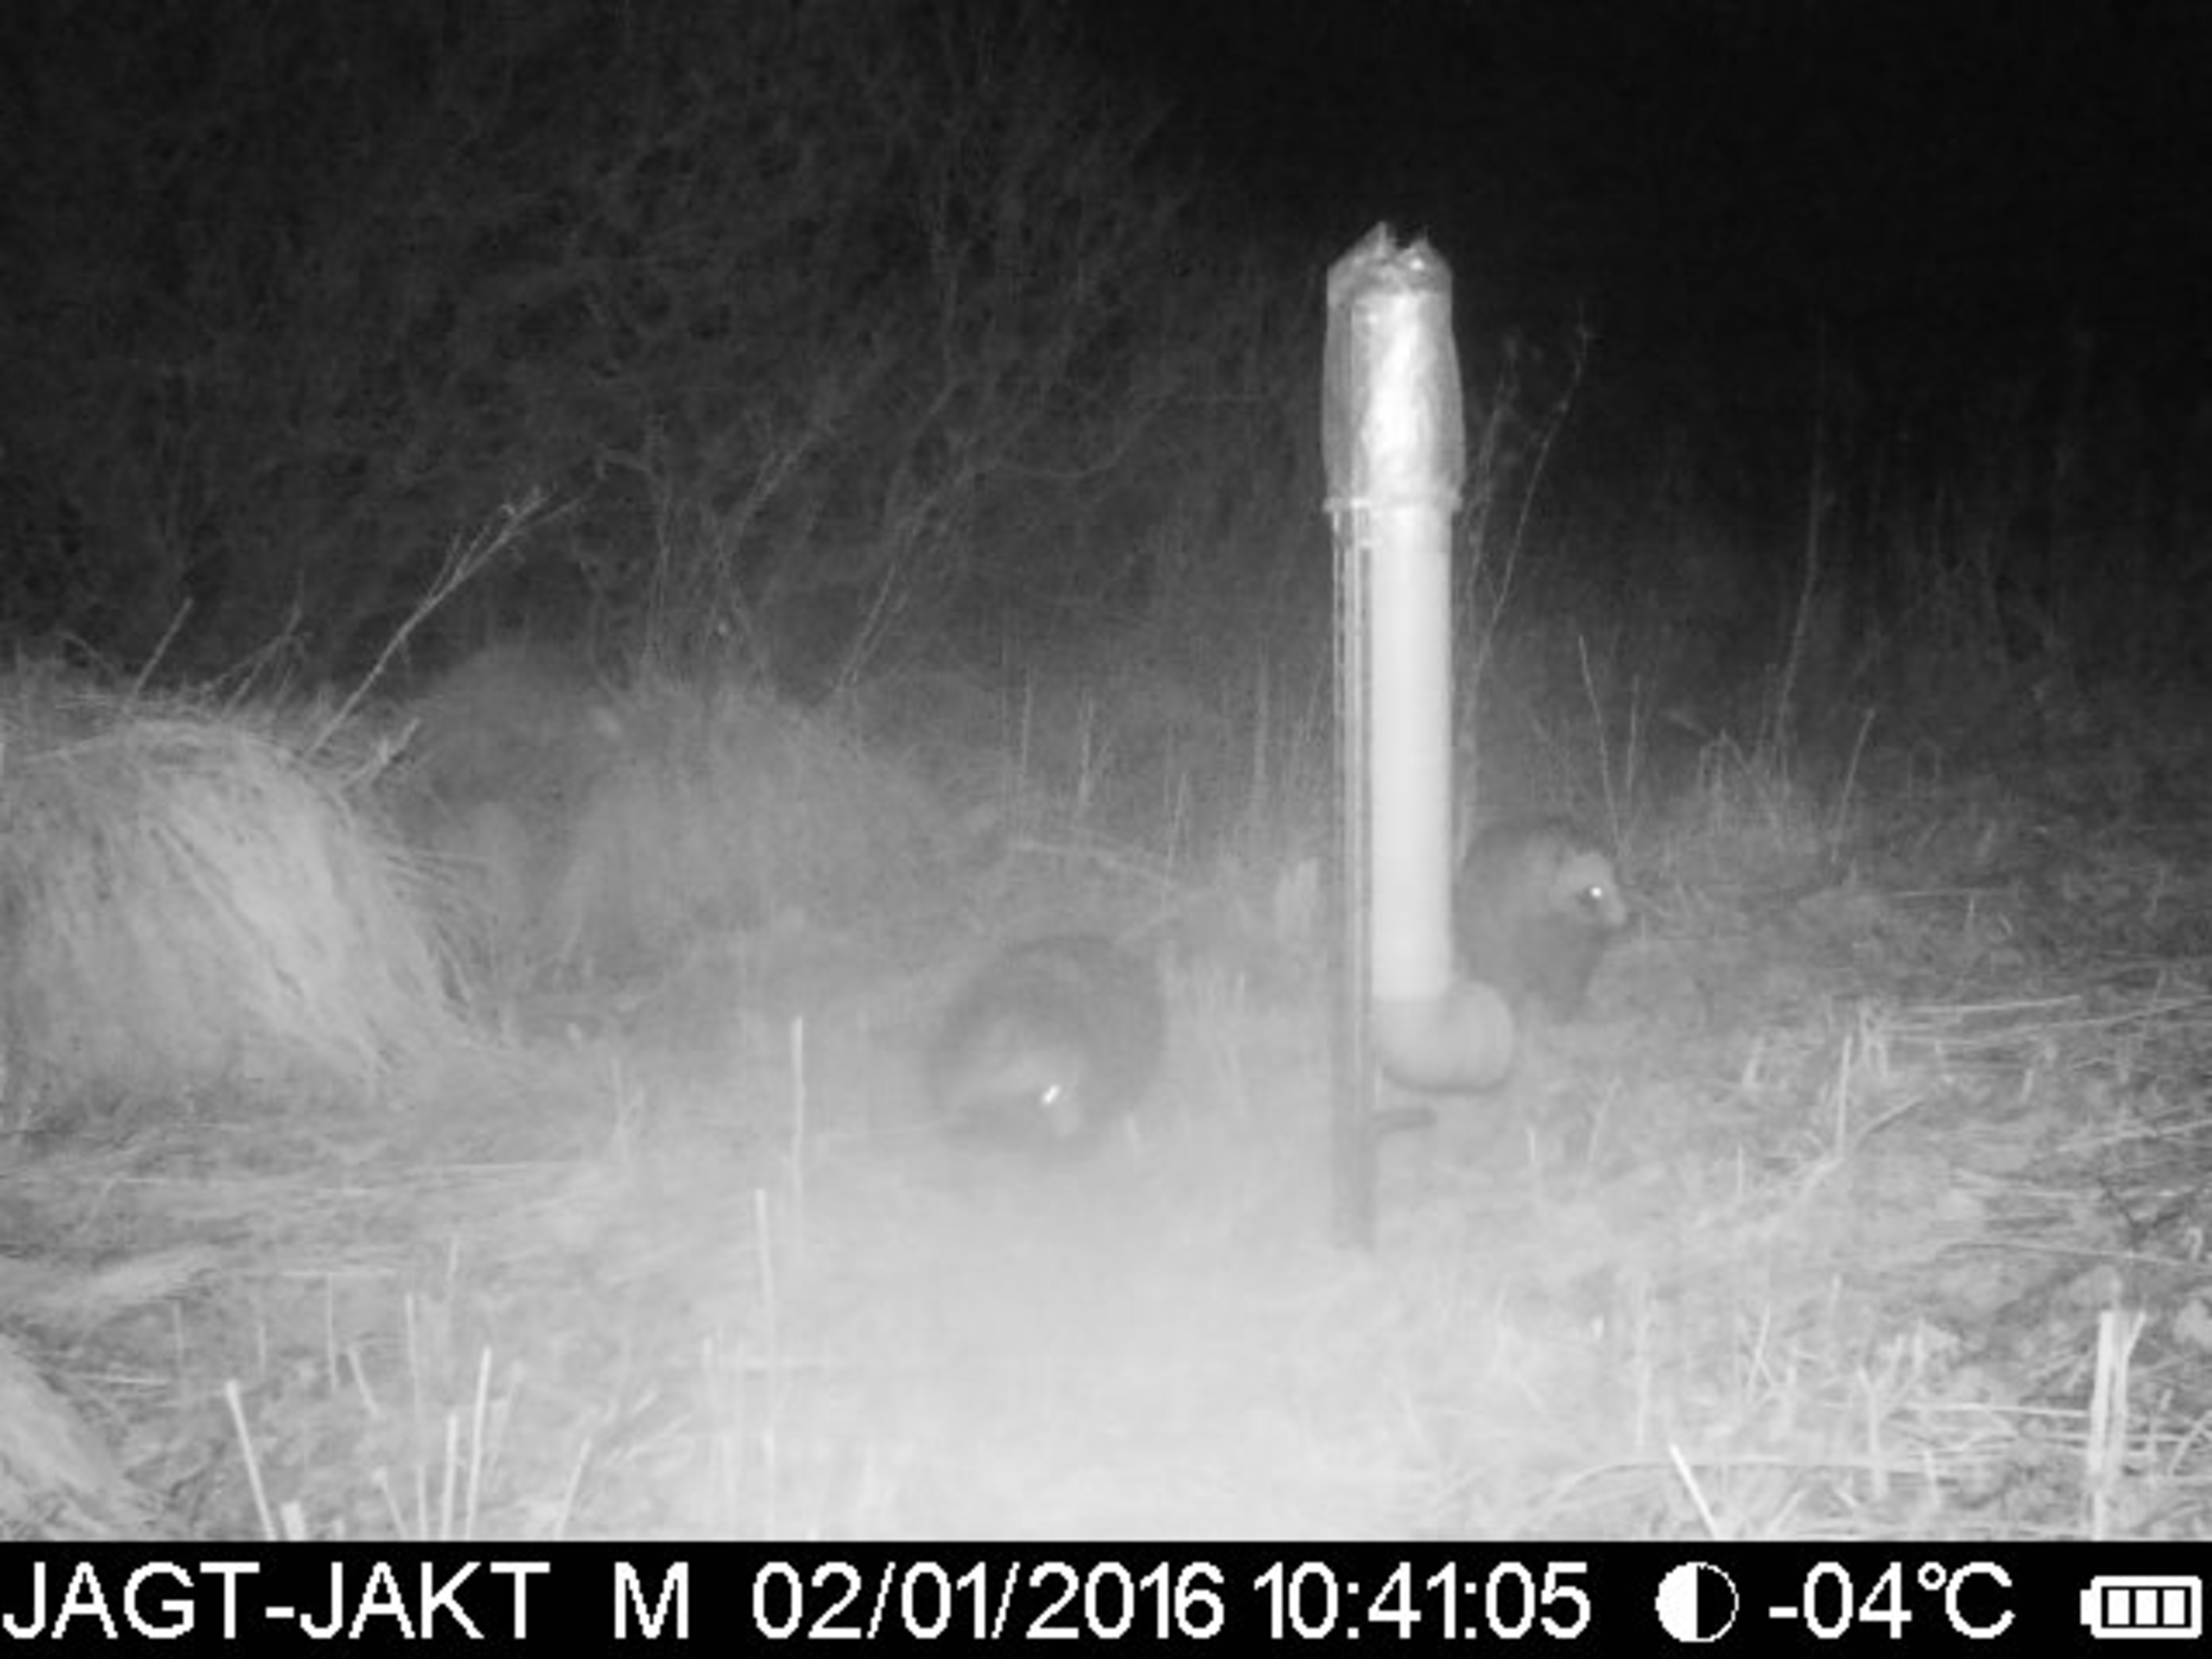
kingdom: Animalia
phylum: Chordata
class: Mammalia
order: Carnivora
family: Canidae
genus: Nyctereutes
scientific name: Nyctereutes procyonoides
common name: Mårhund
